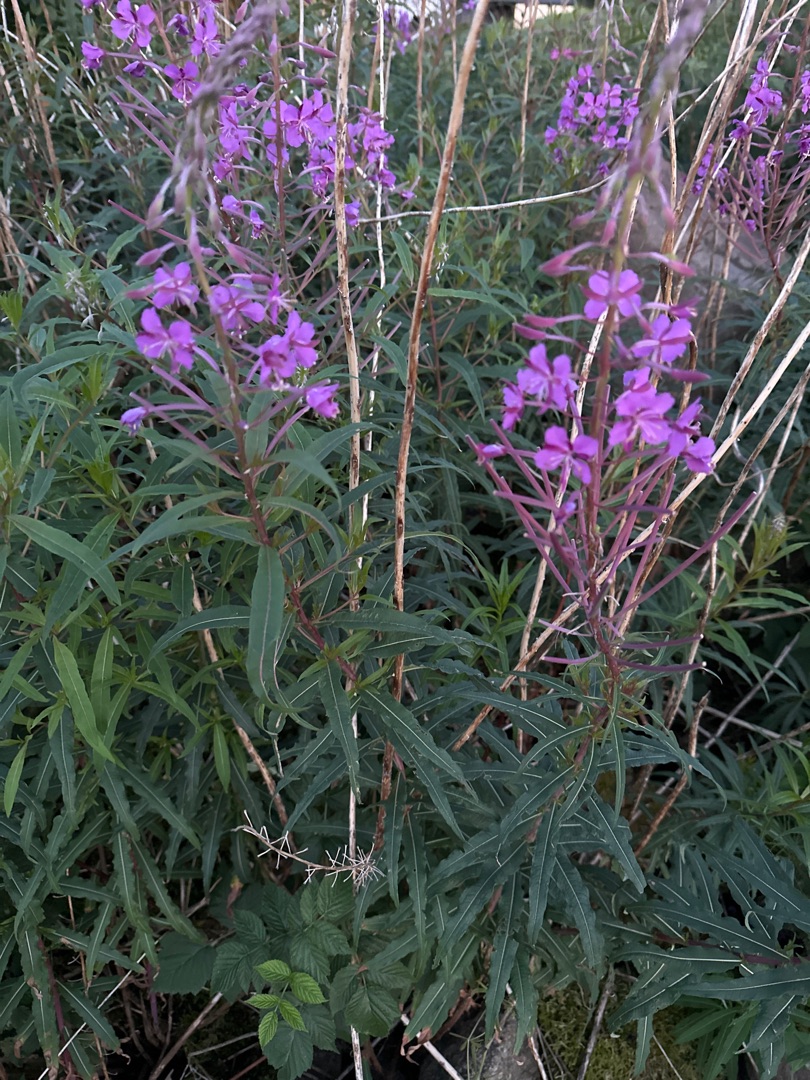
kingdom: Plantae
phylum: Tracheophyta
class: Magnoliopsida
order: Myrtales
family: Onagraceae
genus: Chamaenerion
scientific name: Chamaenerion angustifolium
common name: Gederams
